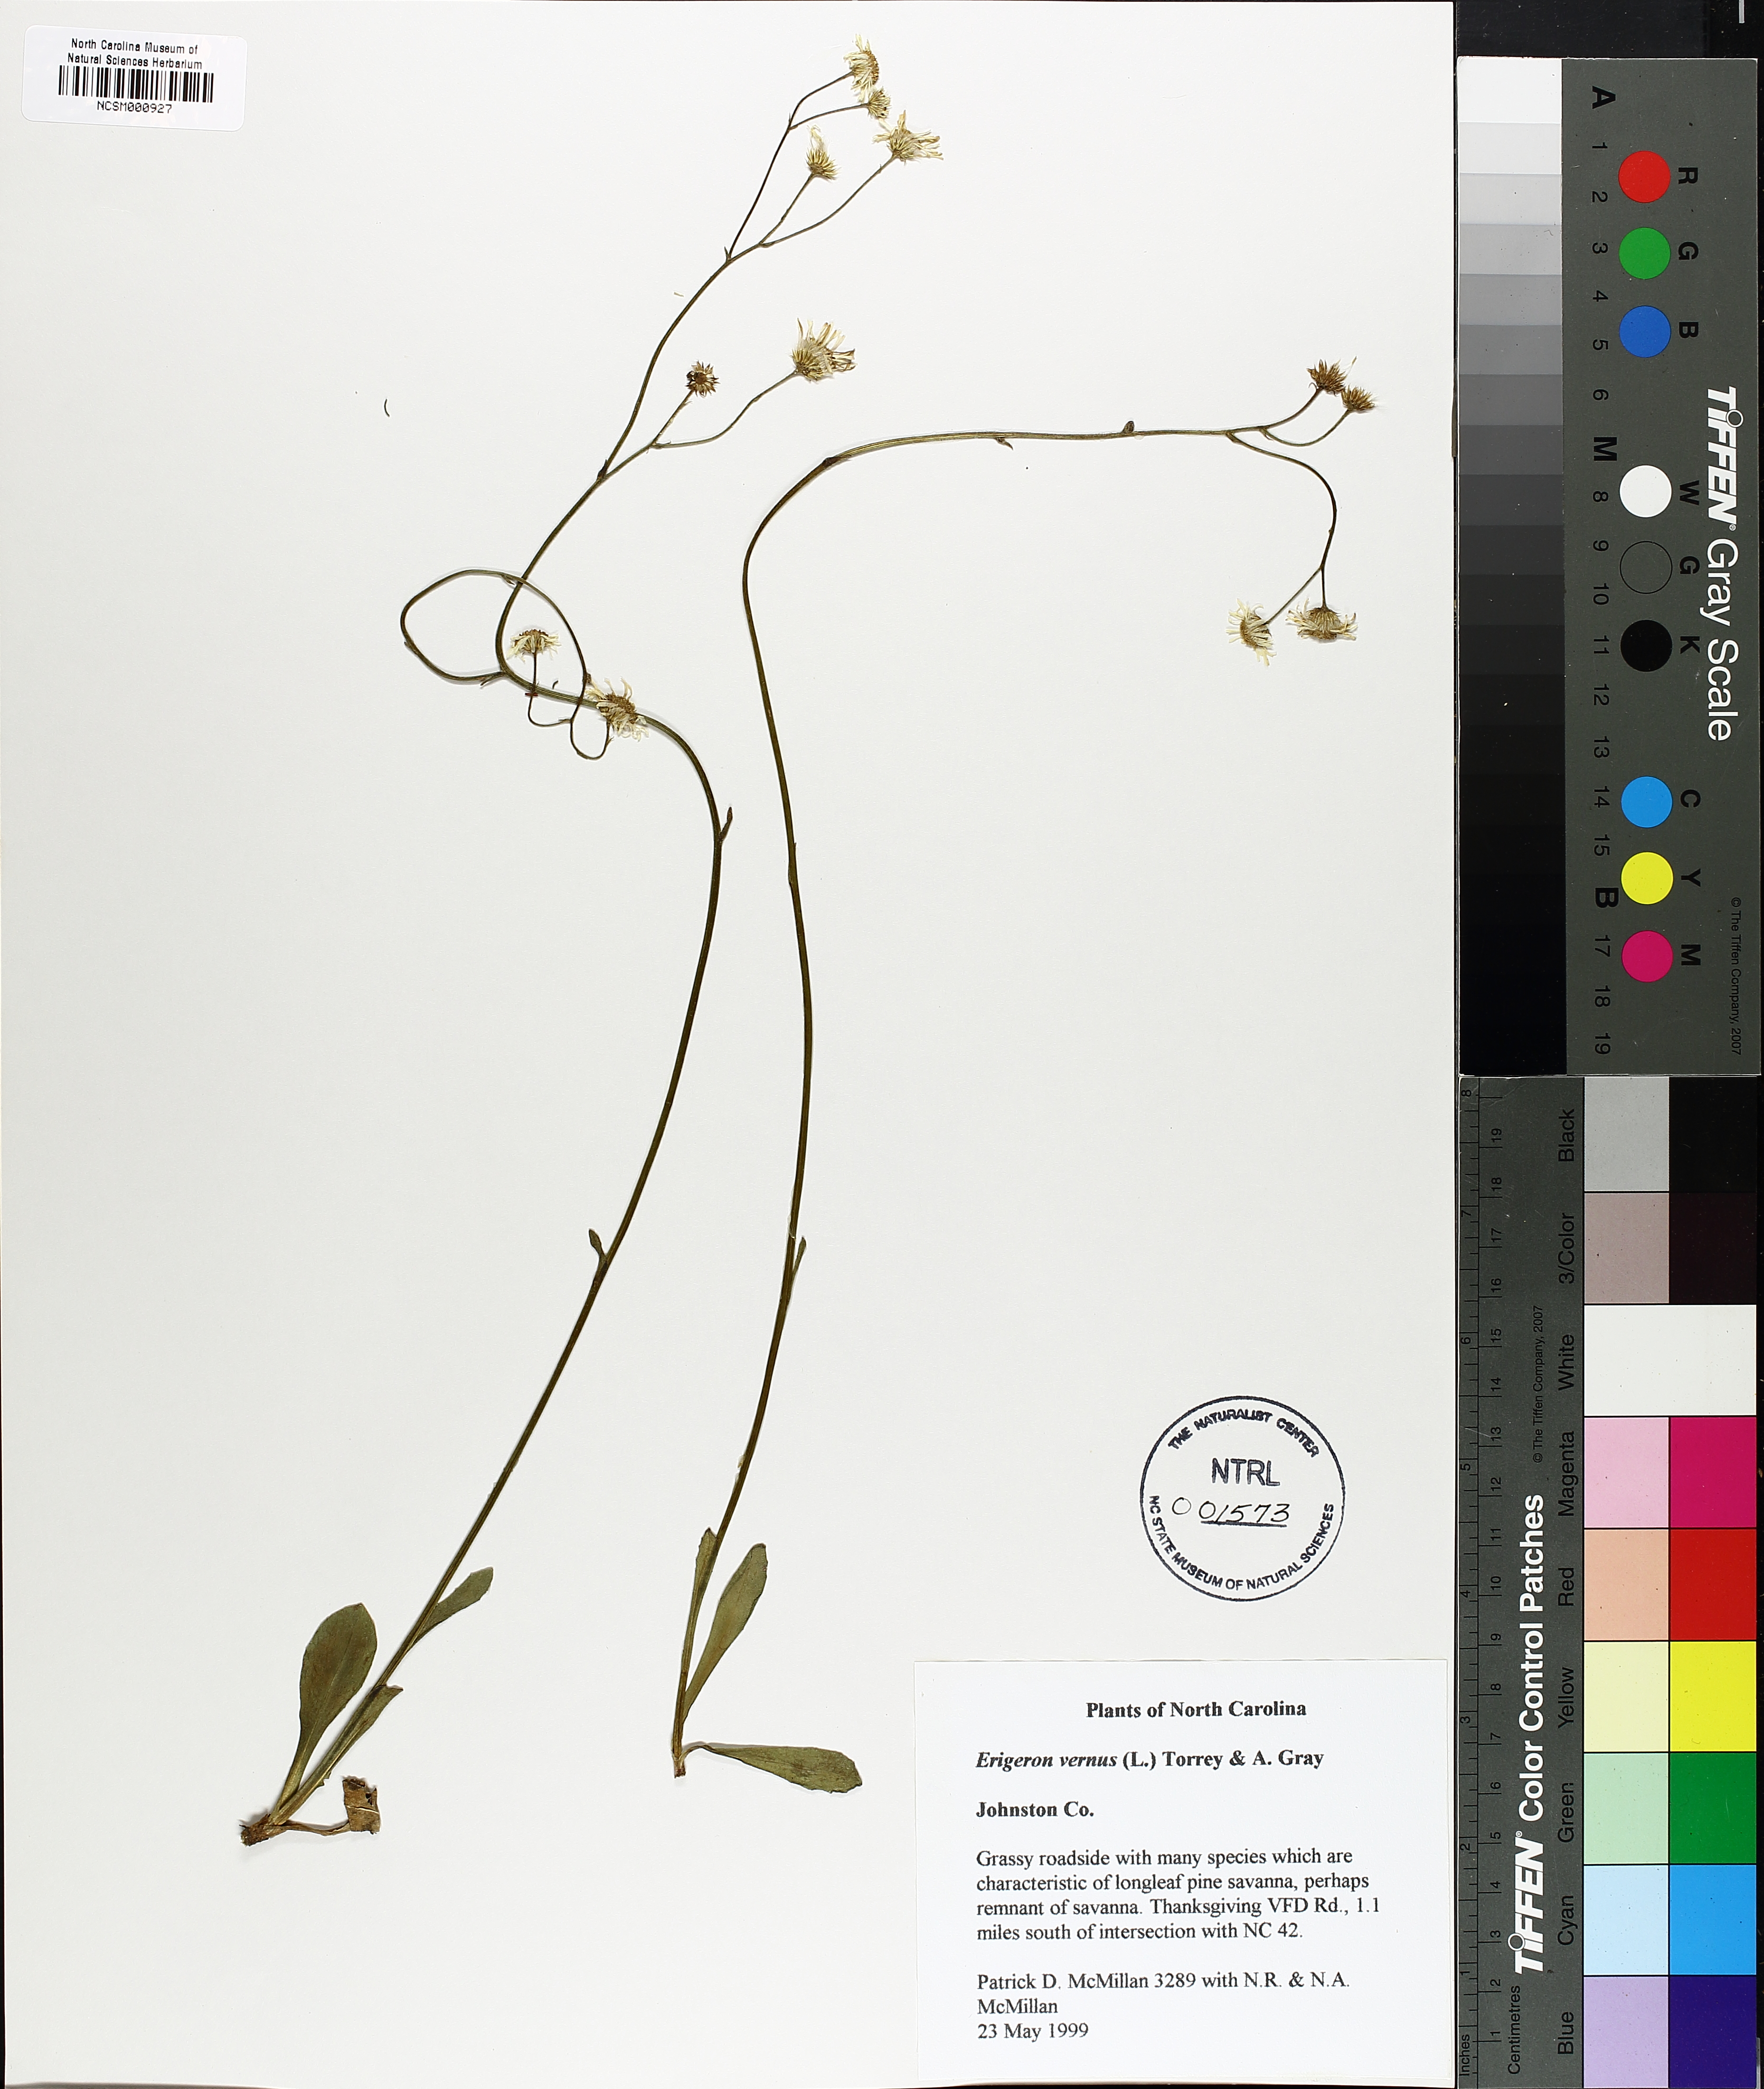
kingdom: Plantae
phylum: Tracheophyta
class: Magnoliopsida
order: Asterales
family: Asteraceae
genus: Erigeron
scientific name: Erigeron vernus
